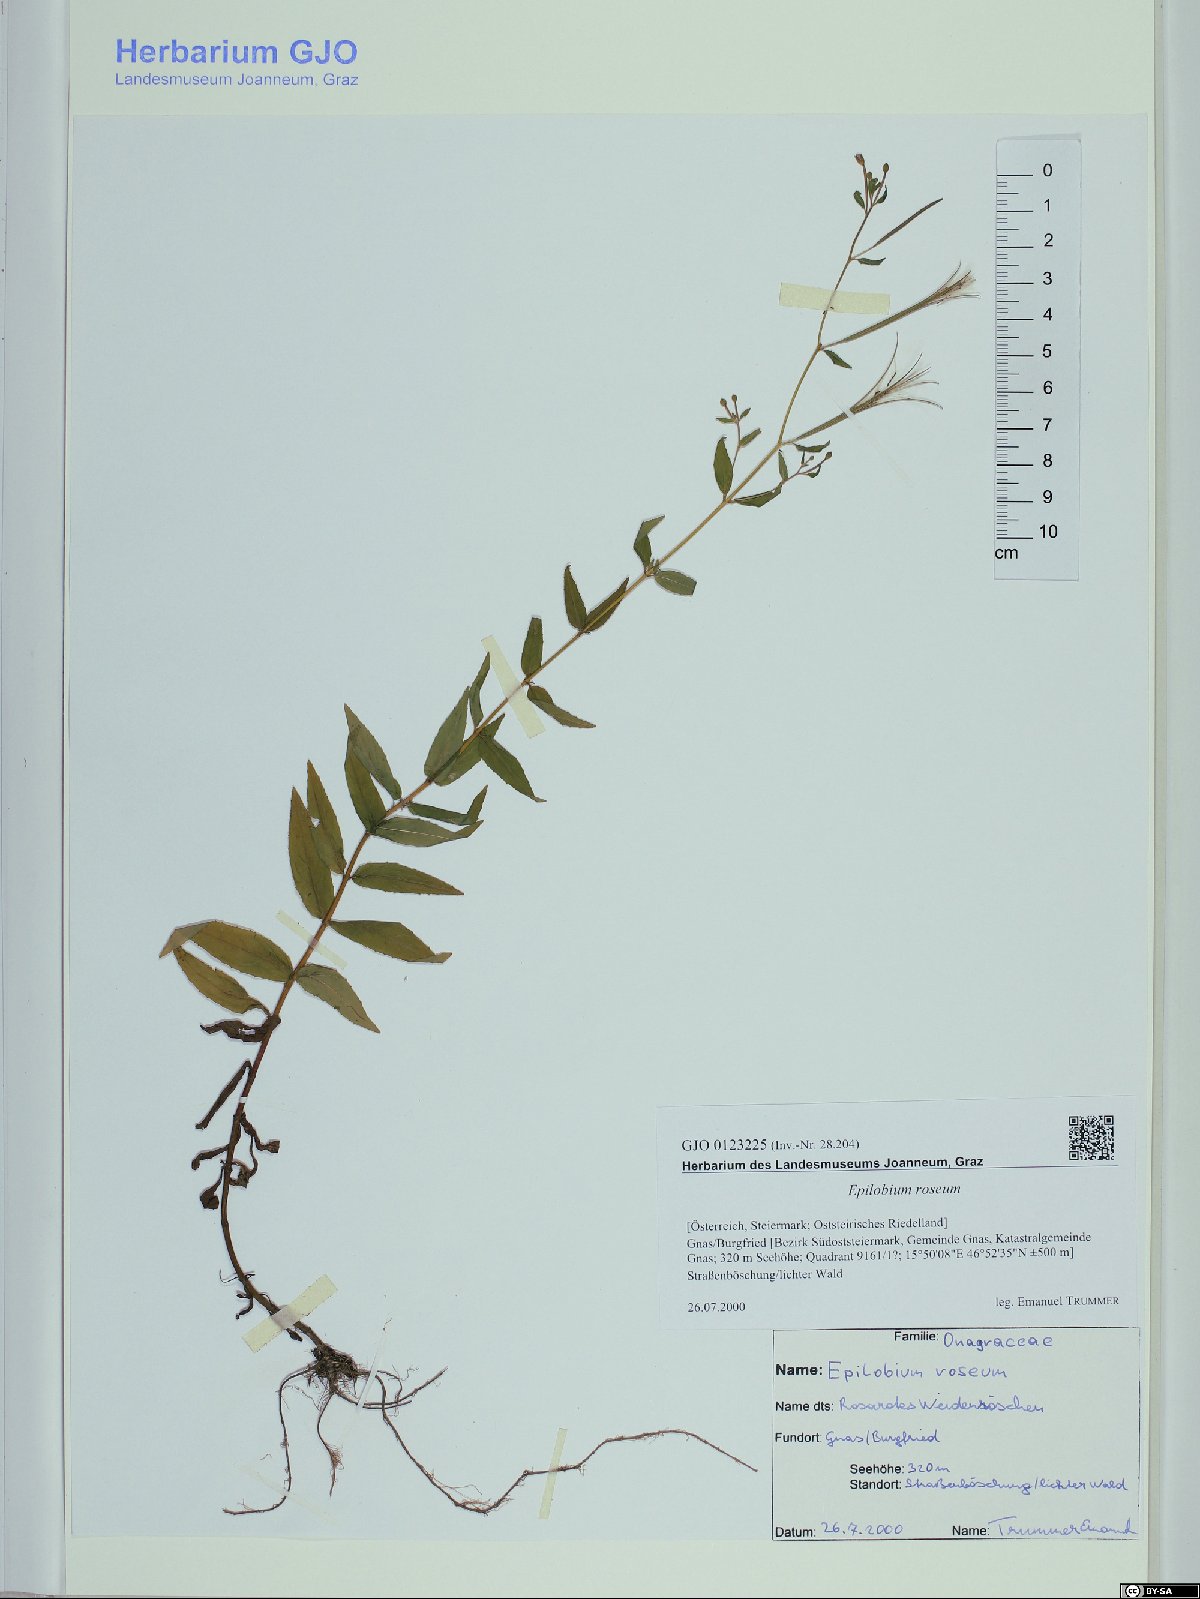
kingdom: Plantae
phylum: Tracheophyta
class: Magnoliopsida
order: Myrtales
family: Onagraceae
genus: Epilobium
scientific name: Epilobium roseum
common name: Pale willowherb
